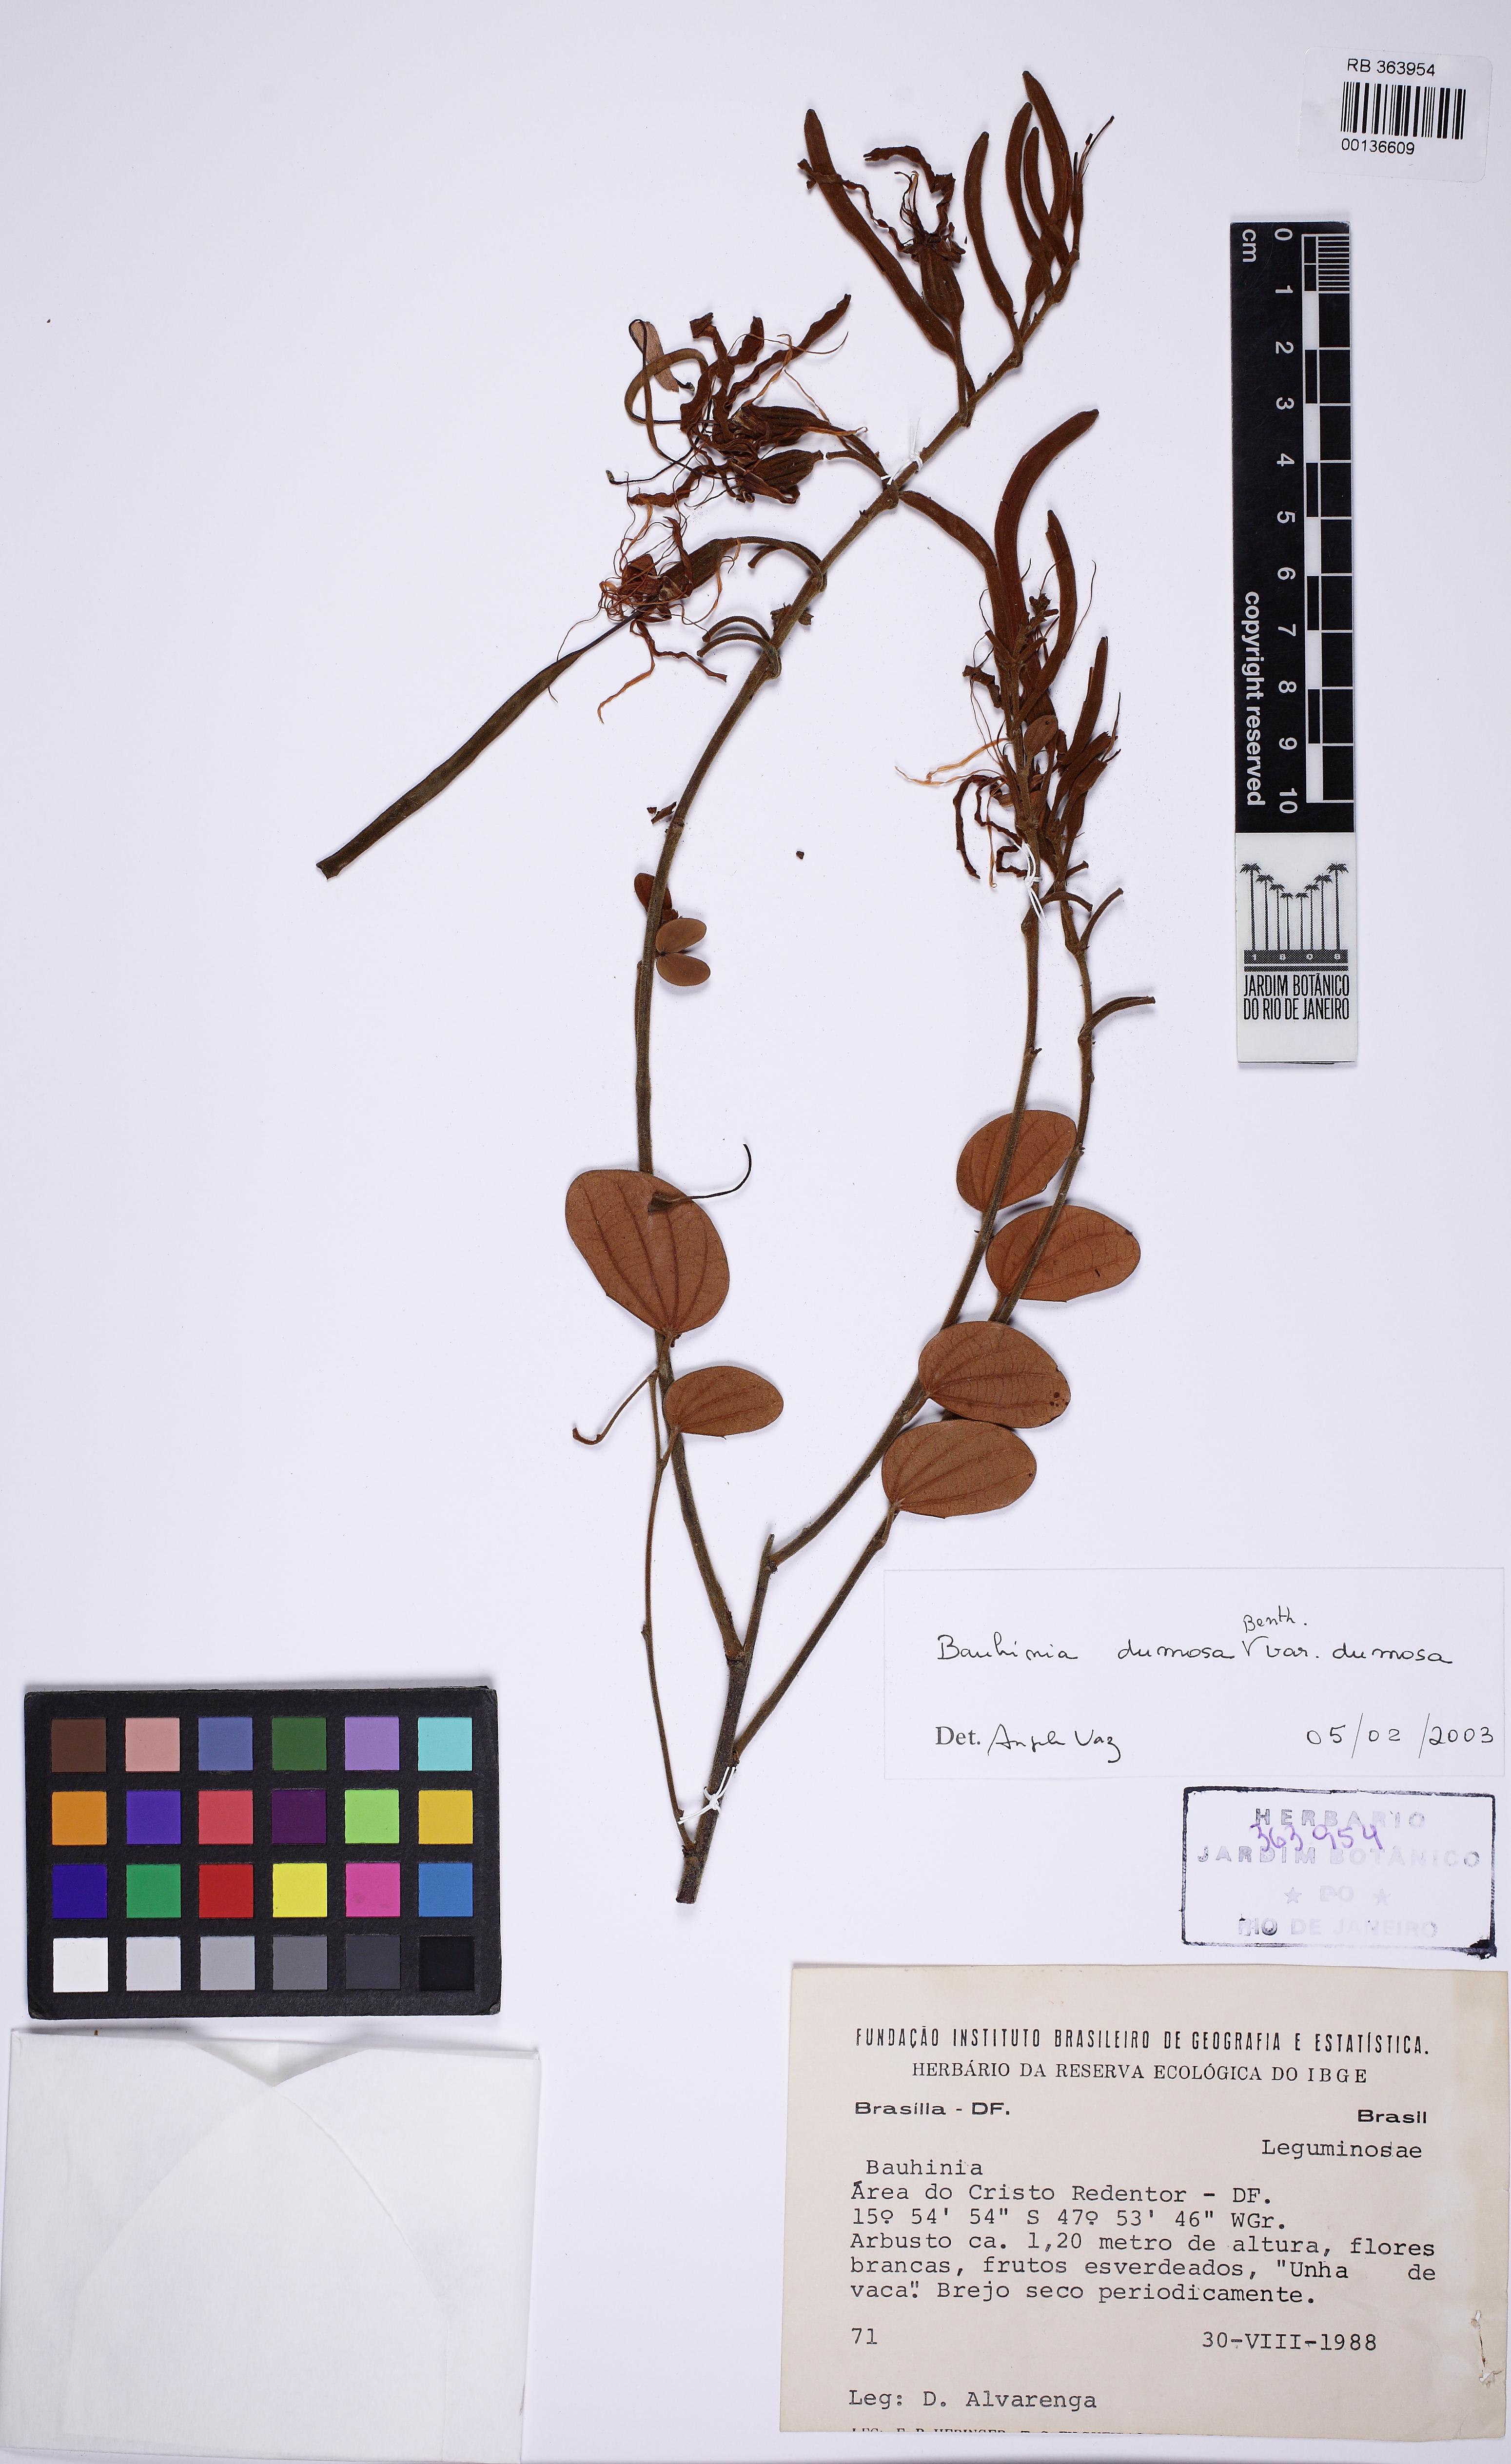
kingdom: Plantae
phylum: Tracheophyta
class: Magnoliopsida
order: Fabales
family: Fabaceae
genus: Bauhinia
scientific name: Bauhinia dumosa
